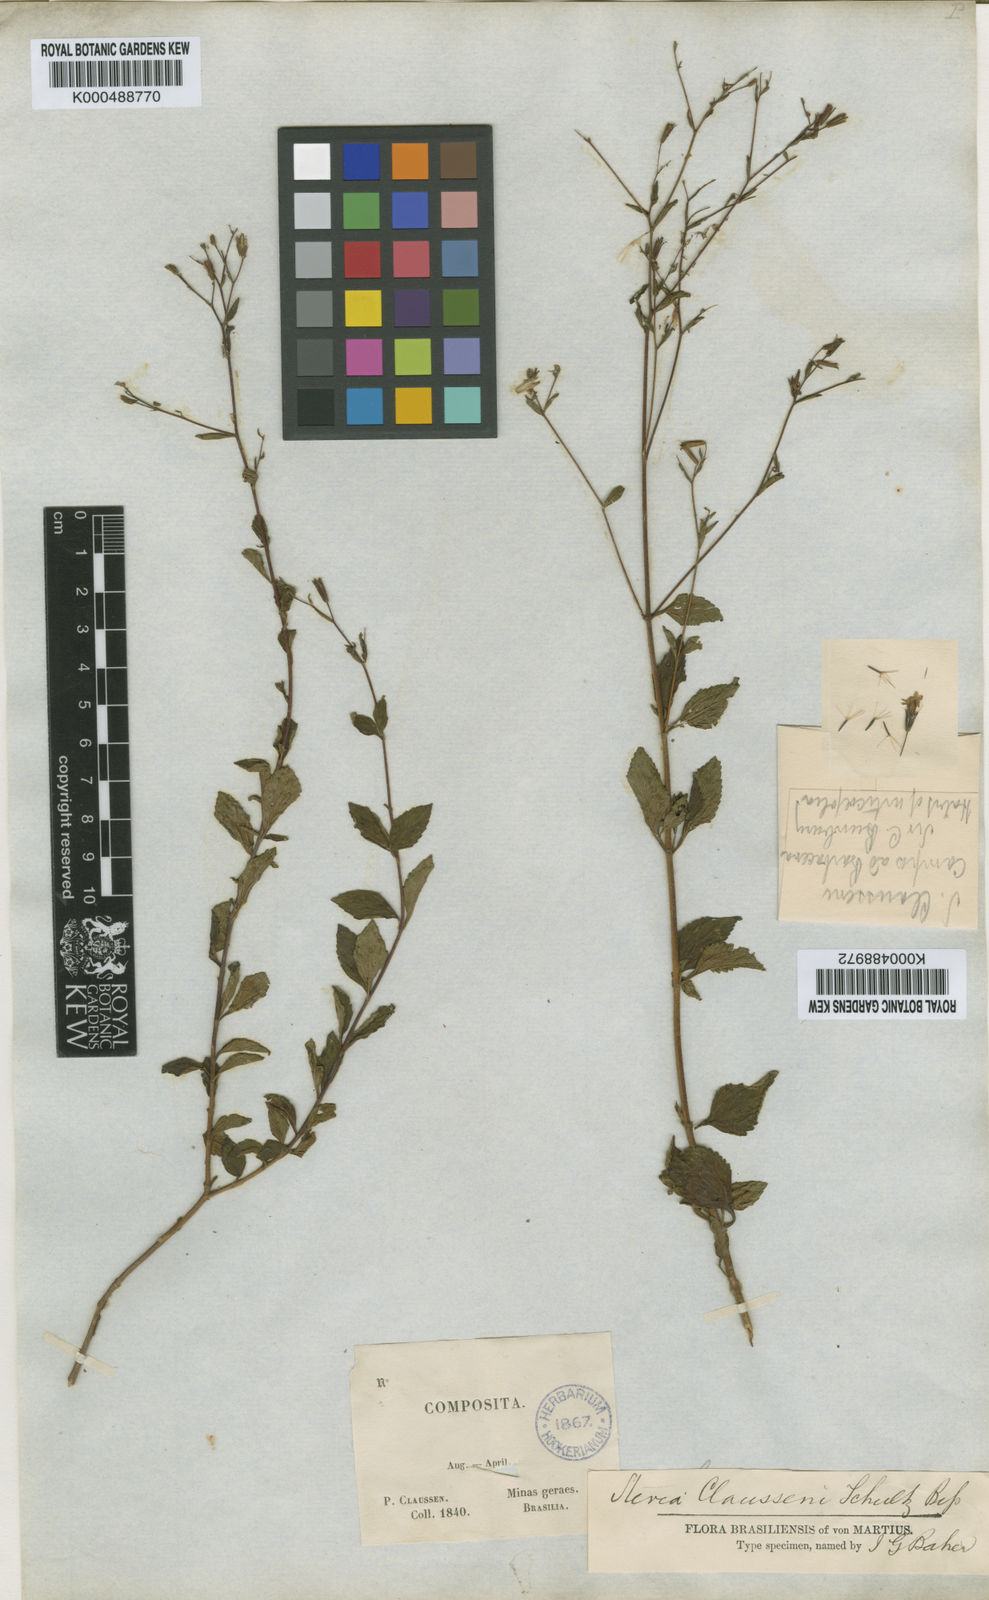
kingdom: Plantae
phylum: Tracheophyta
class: Magnoliopsida
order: Asterales
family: Asteraceae
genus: Stevia
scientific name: Stevia claussenii
